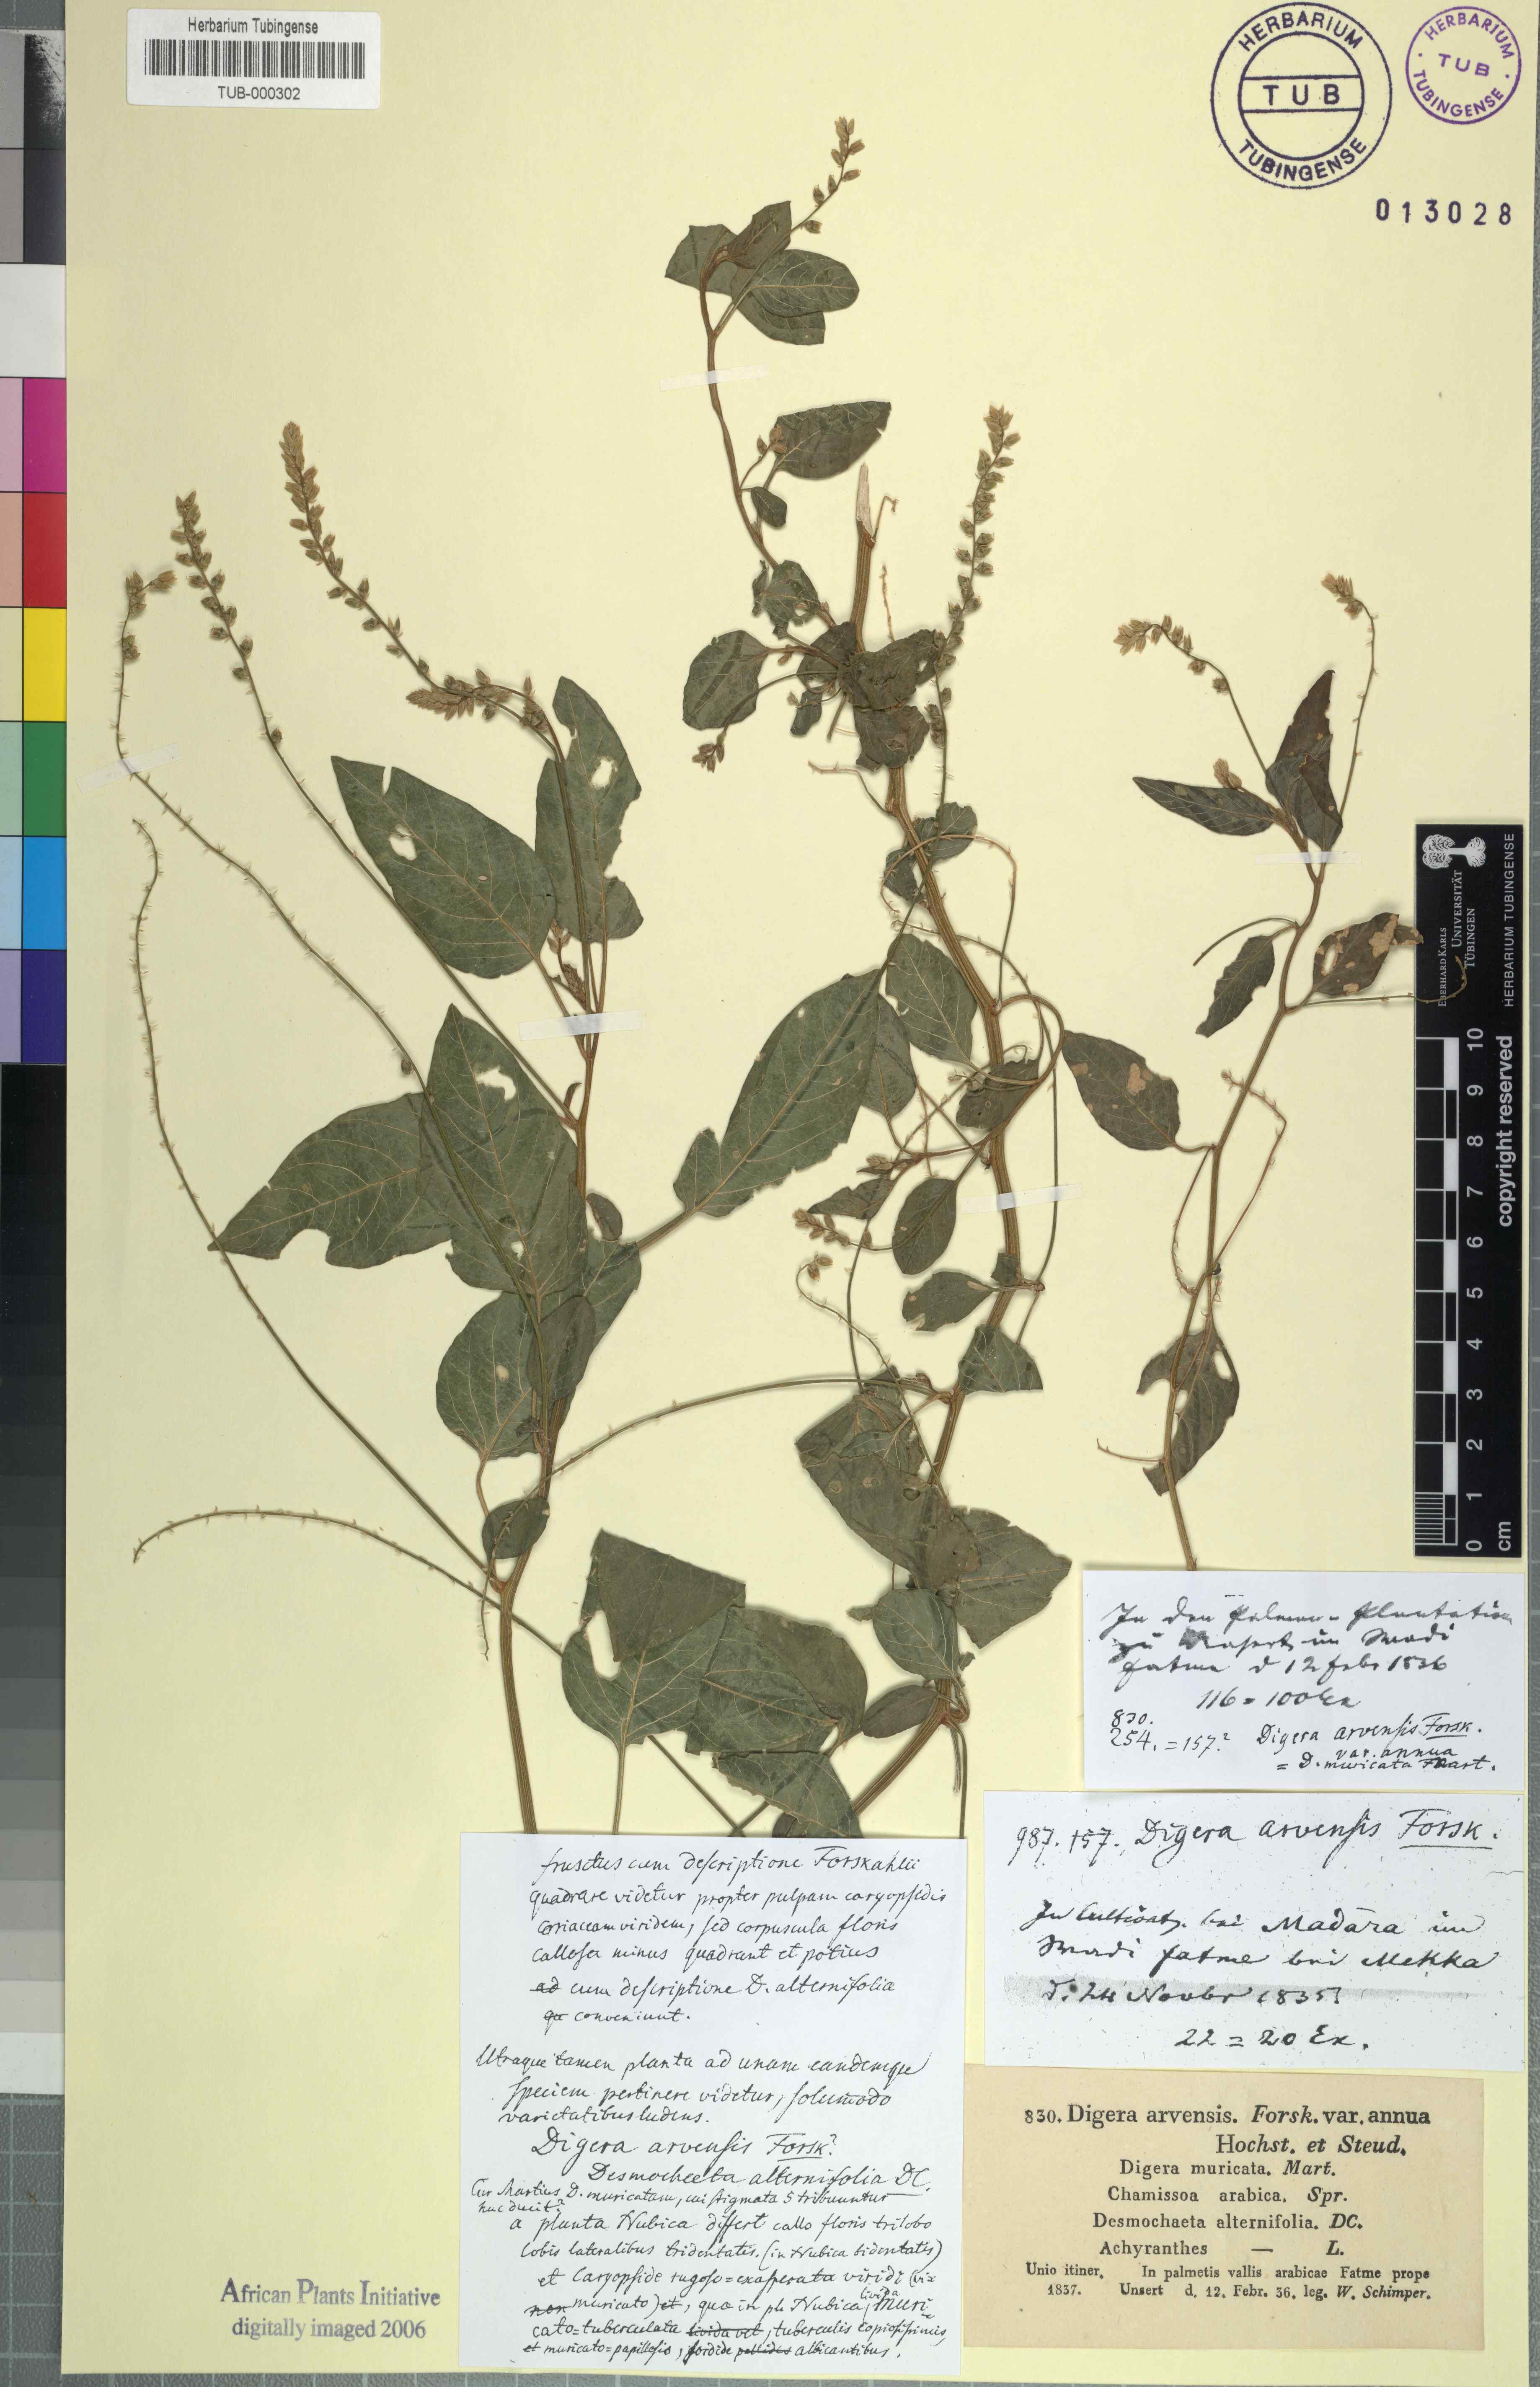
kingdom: Plantae
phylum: Tracheophyta
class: Magnoliopsida
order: Caryophyllales
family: Amaranthaceae
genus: Digera
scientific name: Digera muricata
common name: False amaranth
